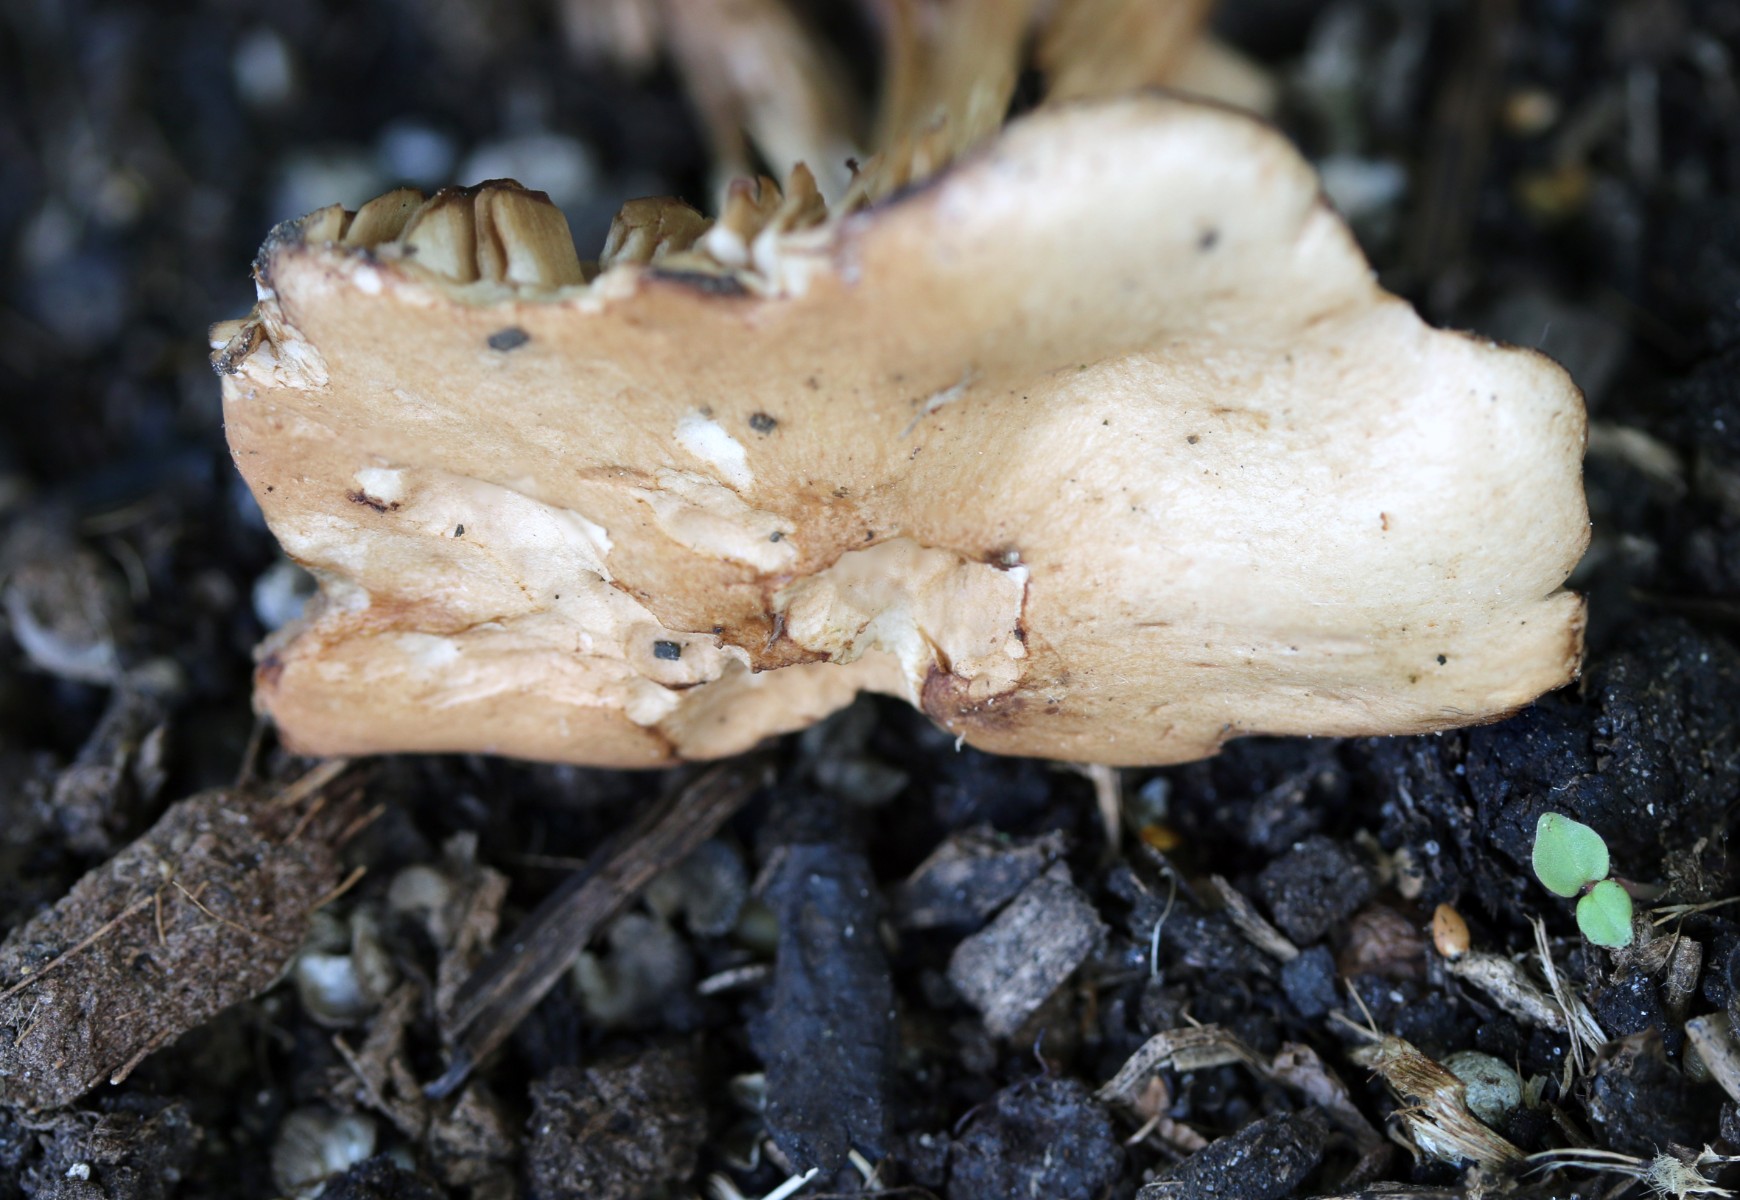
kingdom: Fungi
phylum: Basidiomycota
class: Agaricomycetes
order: Agaricales
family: Hymenogastraceae
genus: Hebeloma
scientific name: Hebeloma sacchariolens
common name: sødtduftende tåreblad
